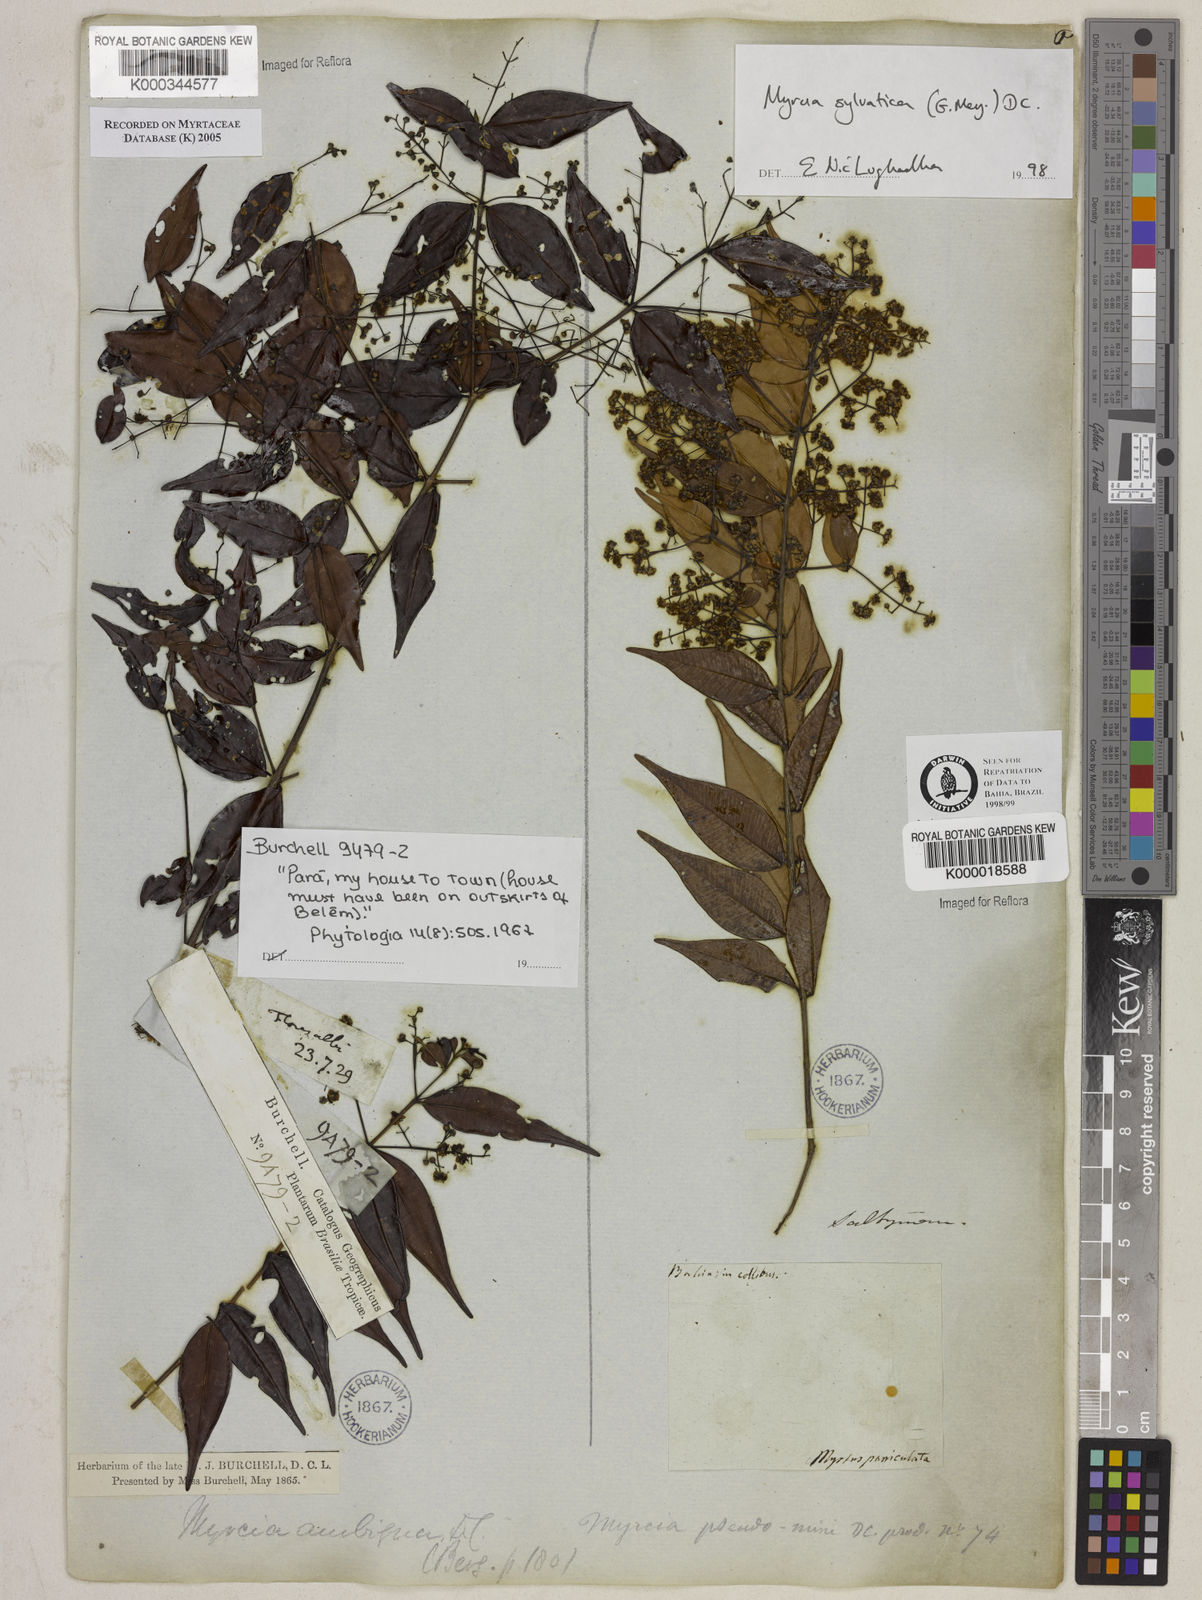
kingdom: Plantae
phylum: Tracheophyta
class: Magnoliopsida
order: Myrtales
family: Myrtaceae
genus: Myrcia
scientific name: Myrcia sylvatica
